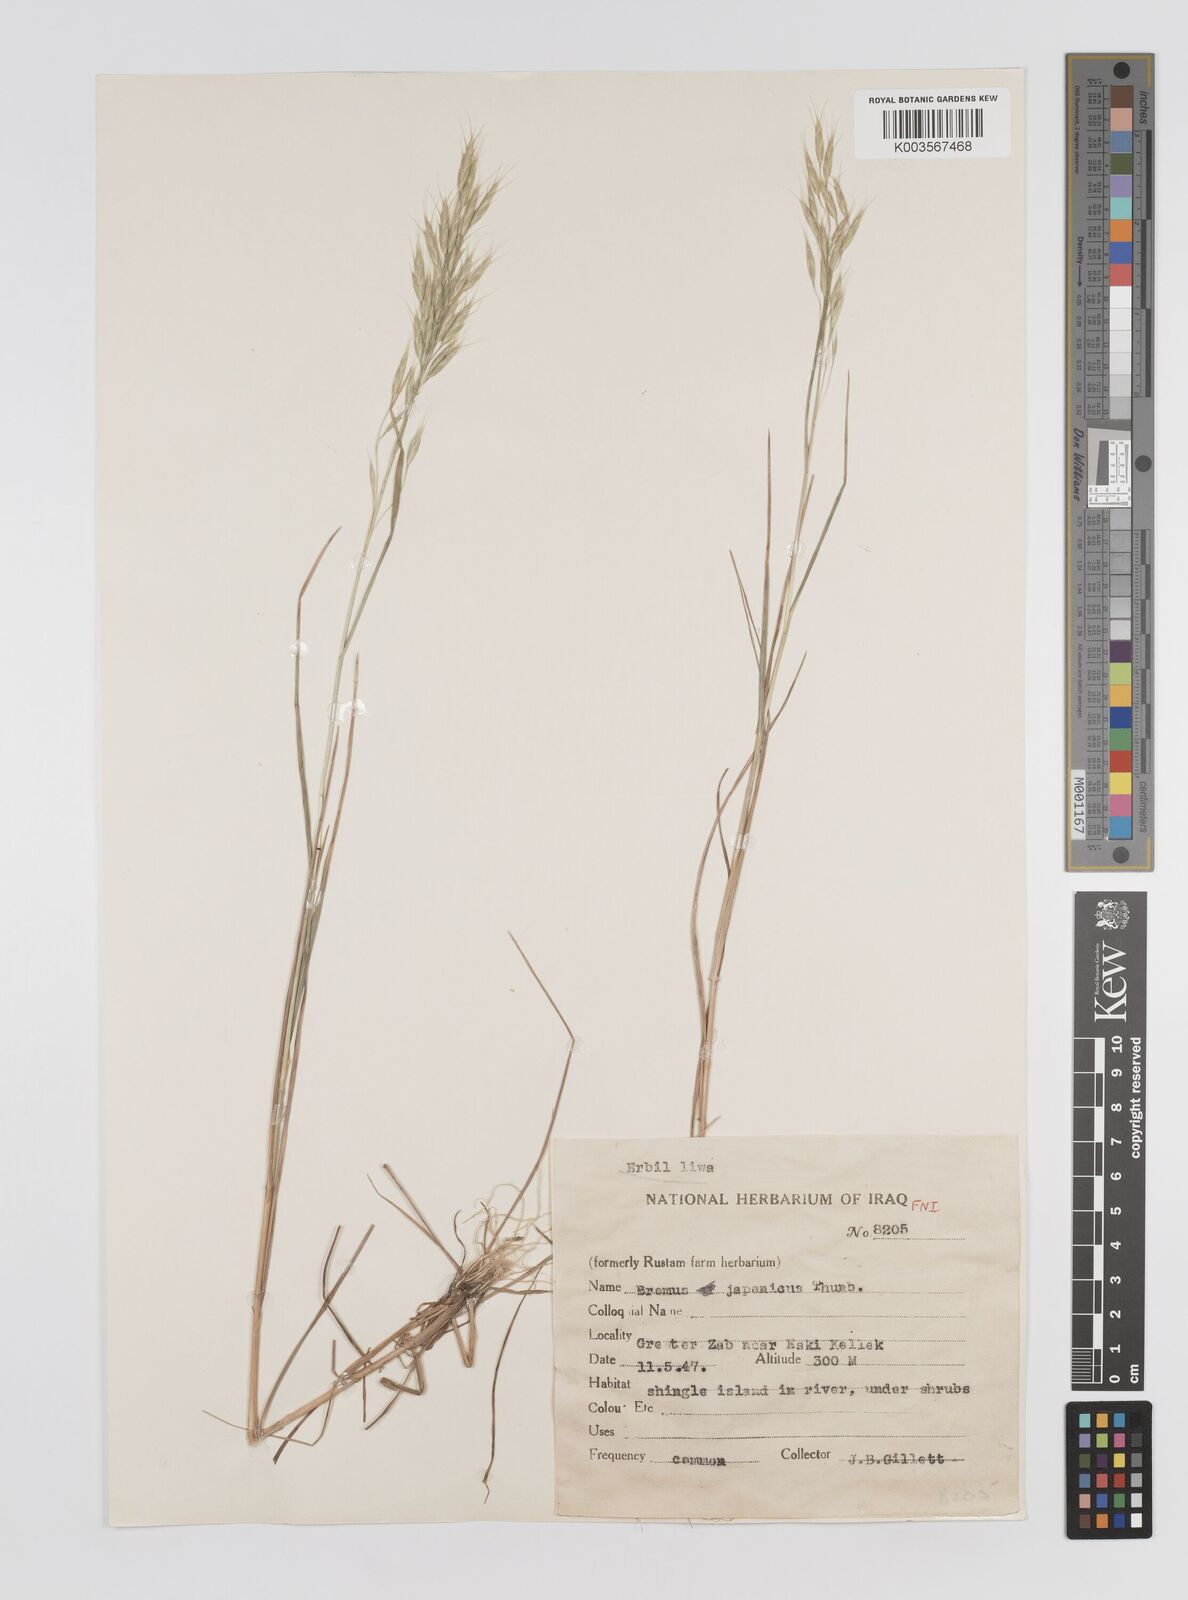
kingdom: Plantae
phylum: Tracheophyta
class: Liliopsida
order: Poales
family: Poaceae
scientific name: Poaceae
